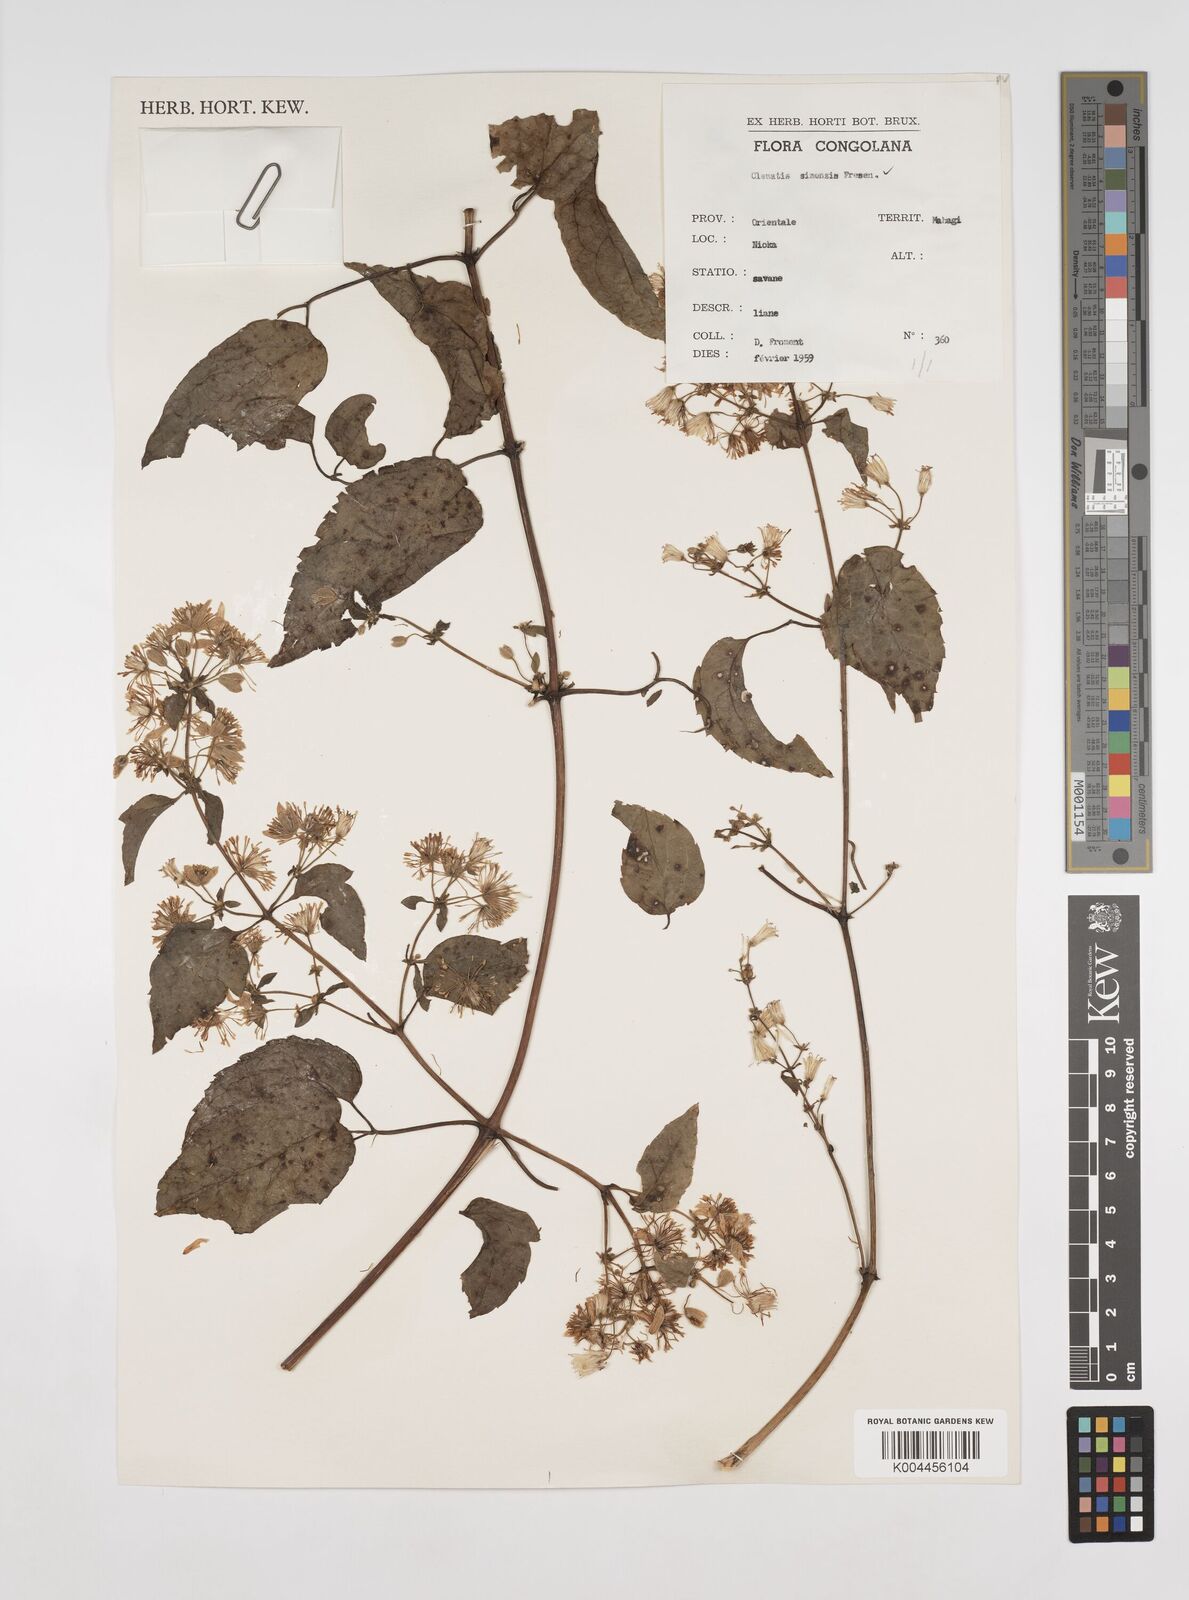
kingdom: Plantae
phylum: Tracheophyta
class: Magnoliopsida
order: Ranunculales
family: Ranunculaceae
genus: Clematis
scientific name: Clematis simensis
